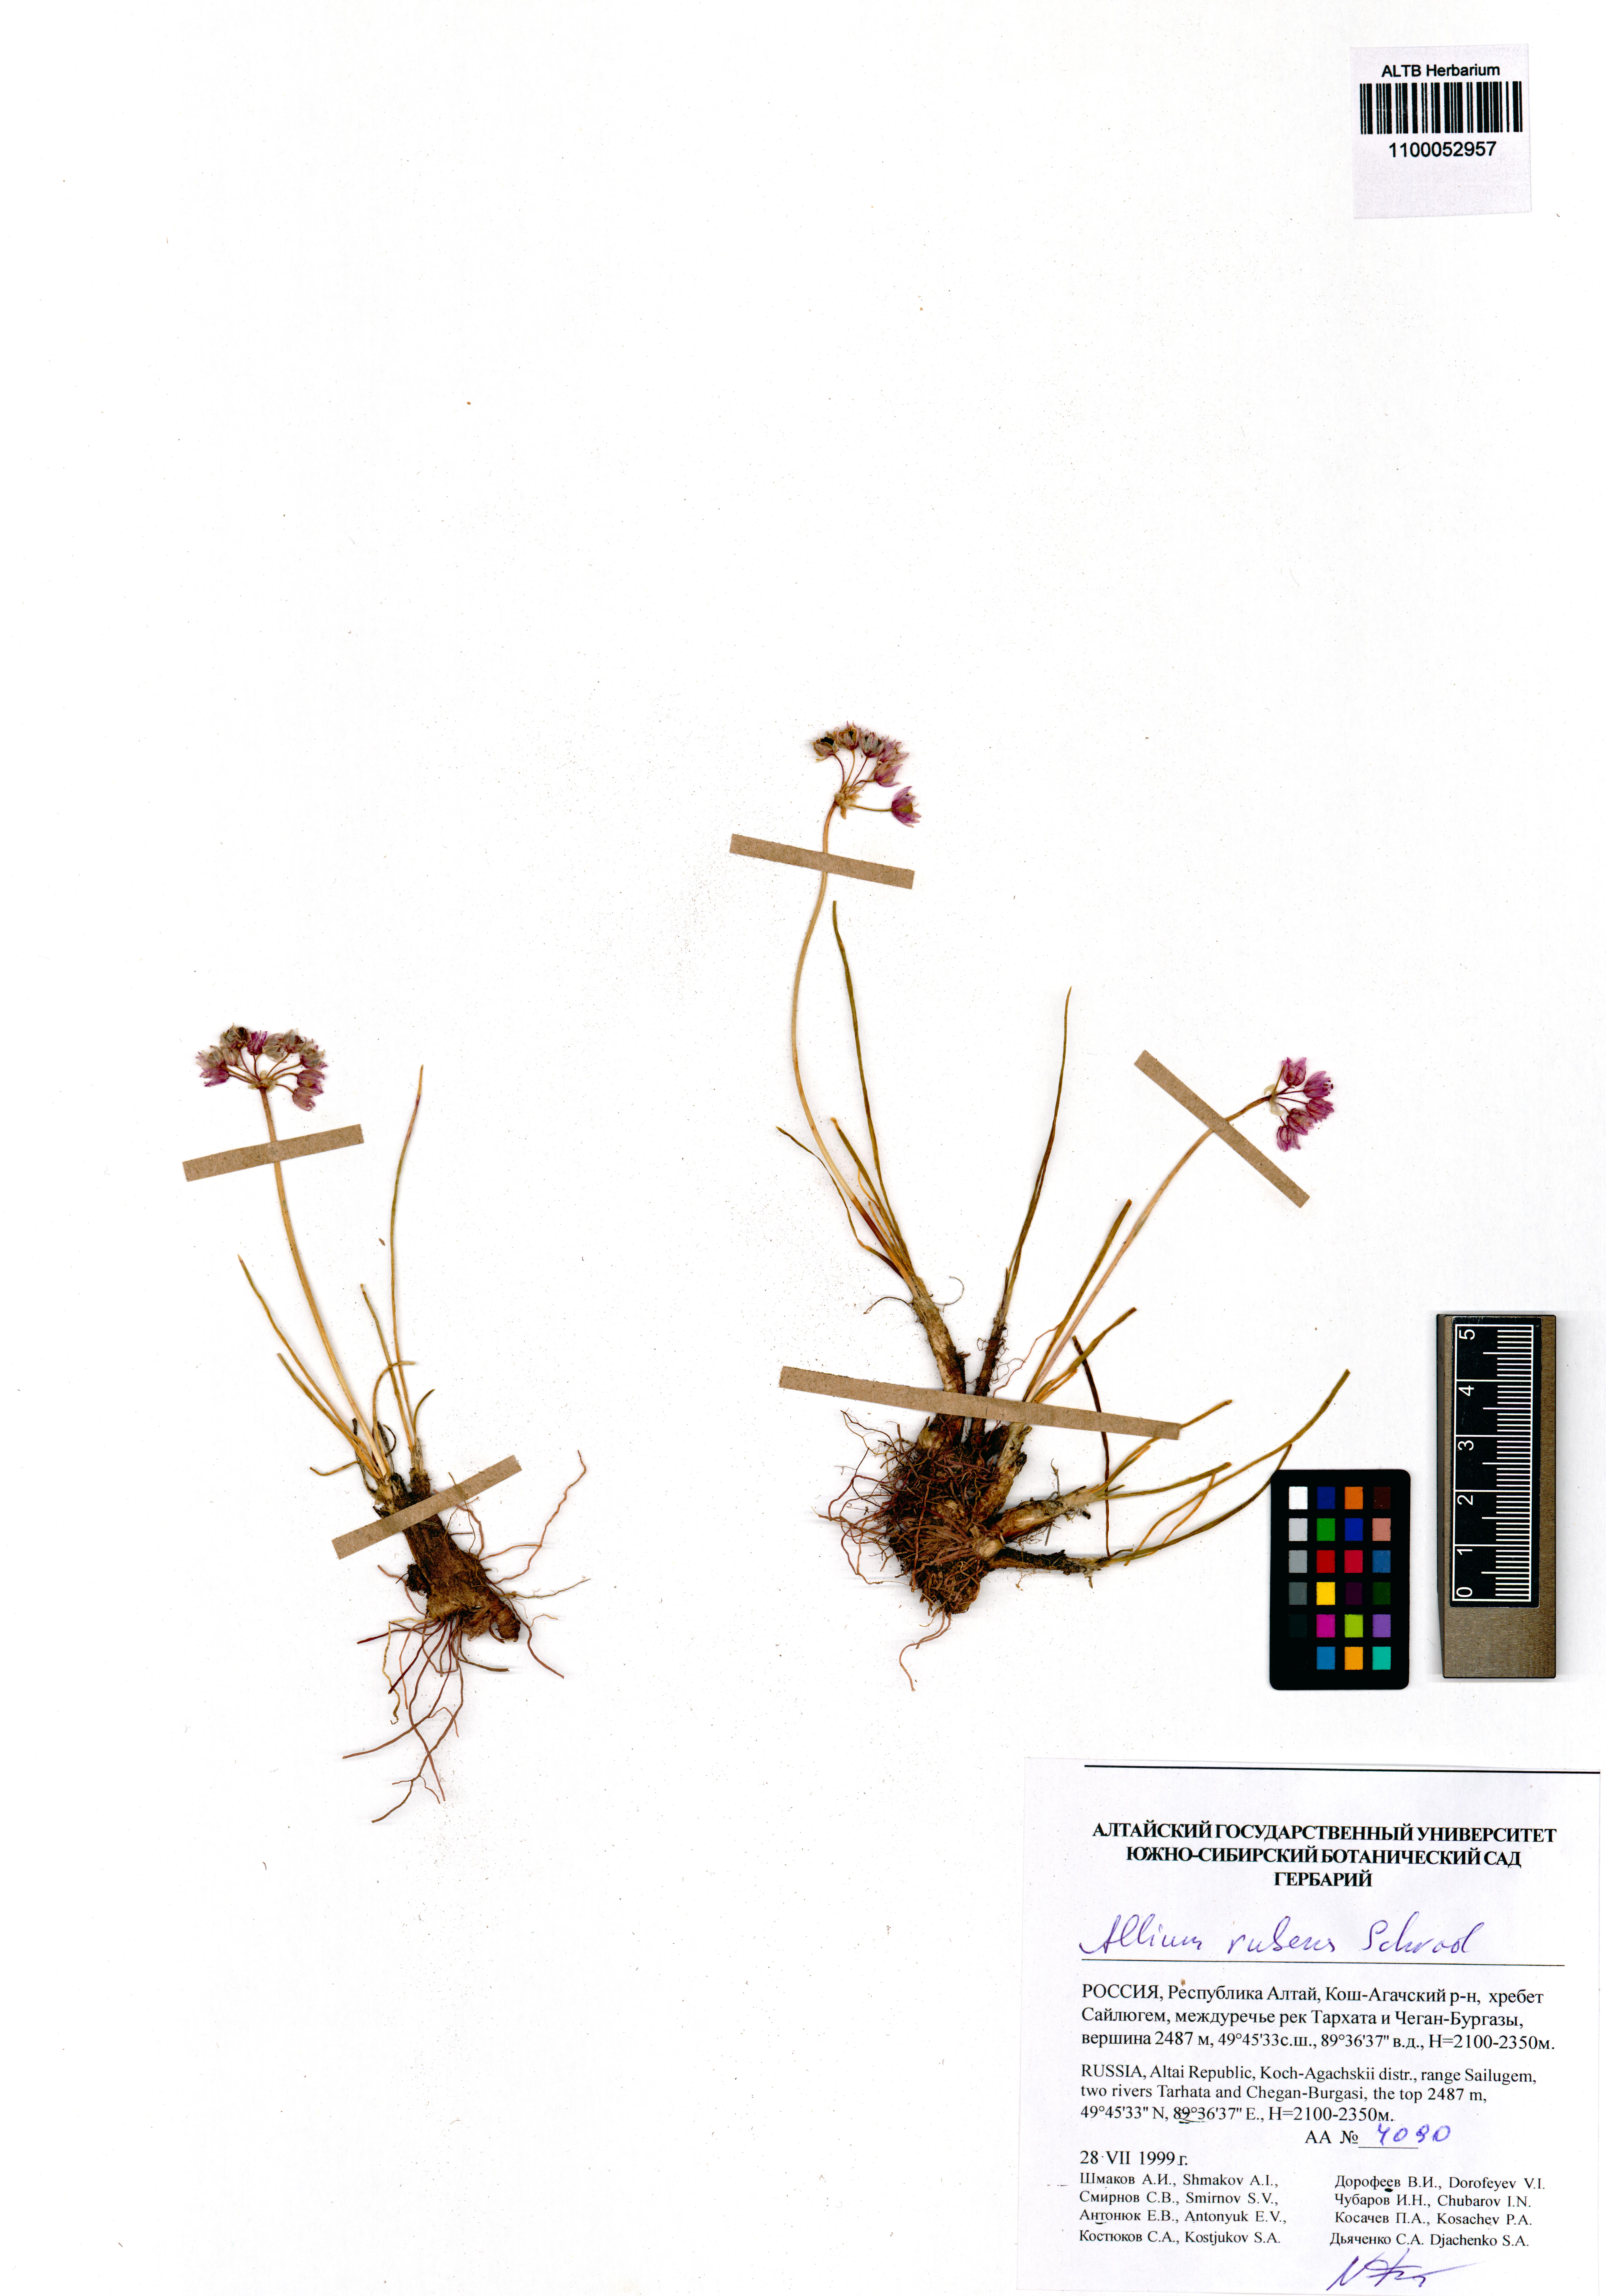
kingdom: Plantae
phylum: Tracheophyta
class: Liliopsida
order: Asparagales
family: Amaryllidaceae
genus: Allium
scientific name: Allium rubens
